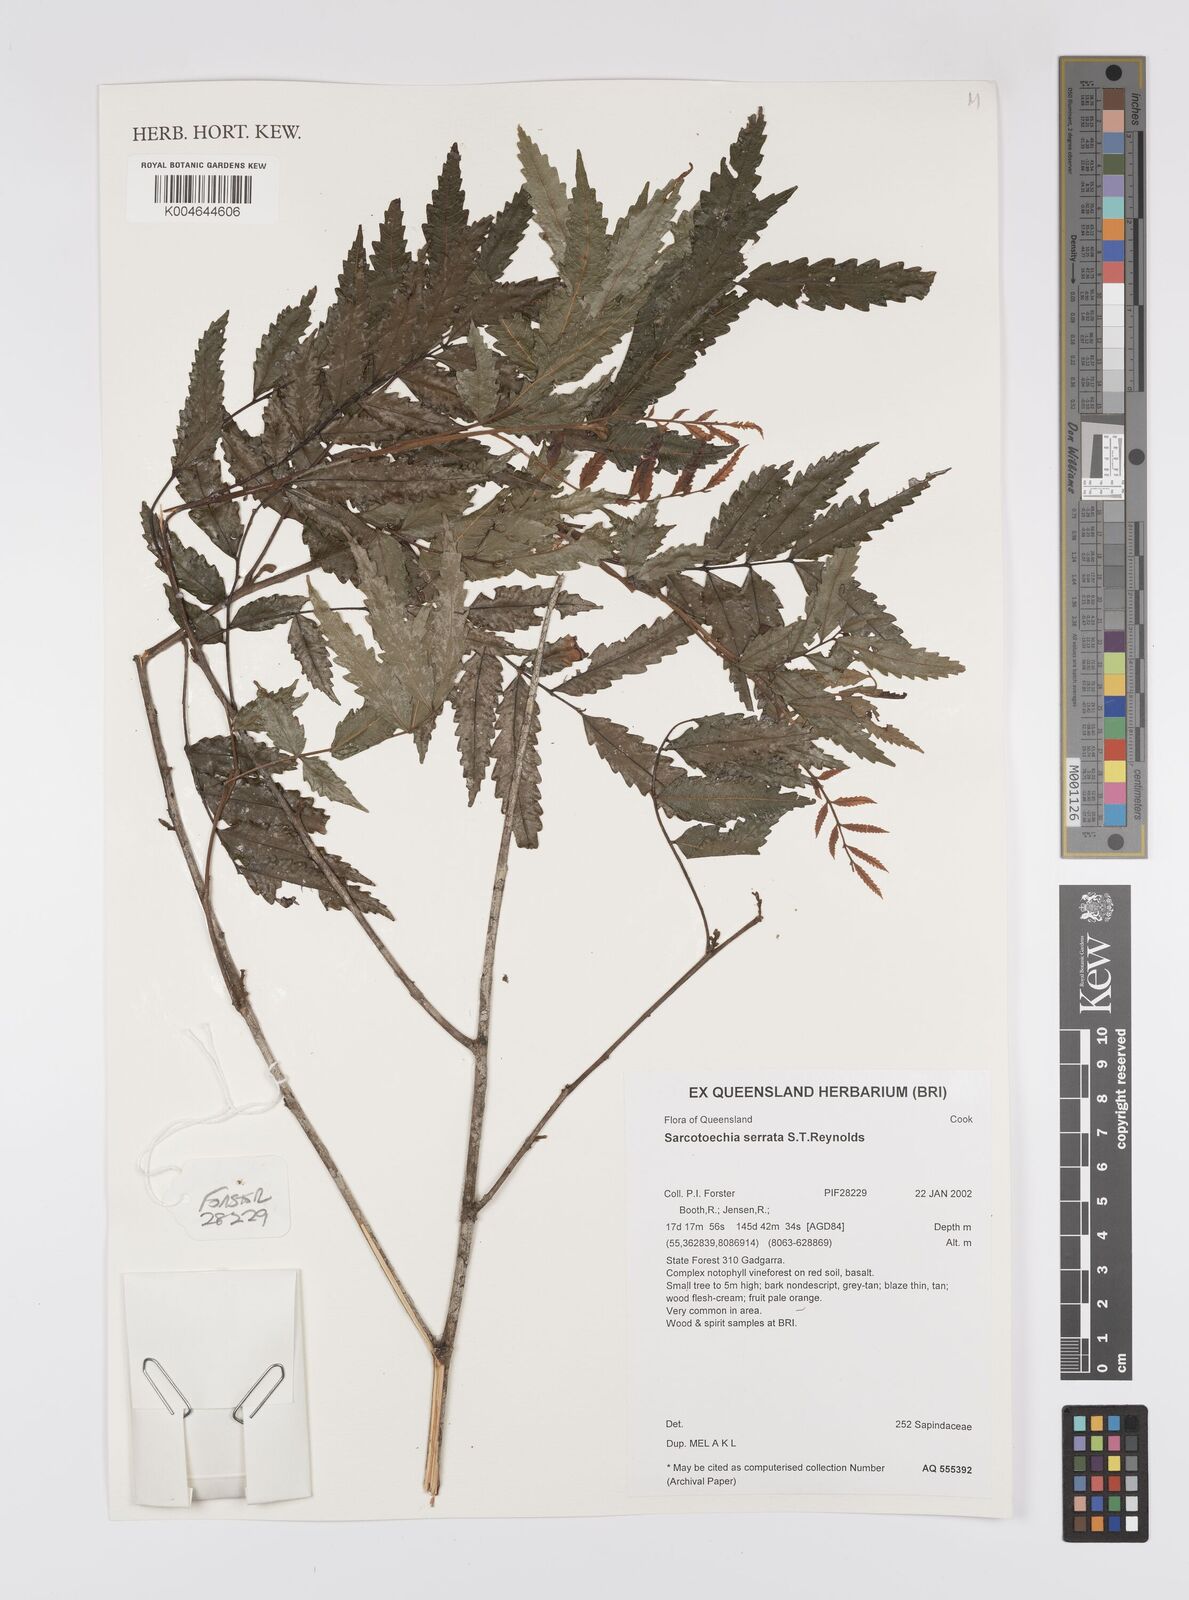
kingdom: Plantae
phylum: Tracheophyta
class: Magnoliopsida
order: Sapindales
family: Sapindaceae
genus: Synima
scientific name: Synima serrata
